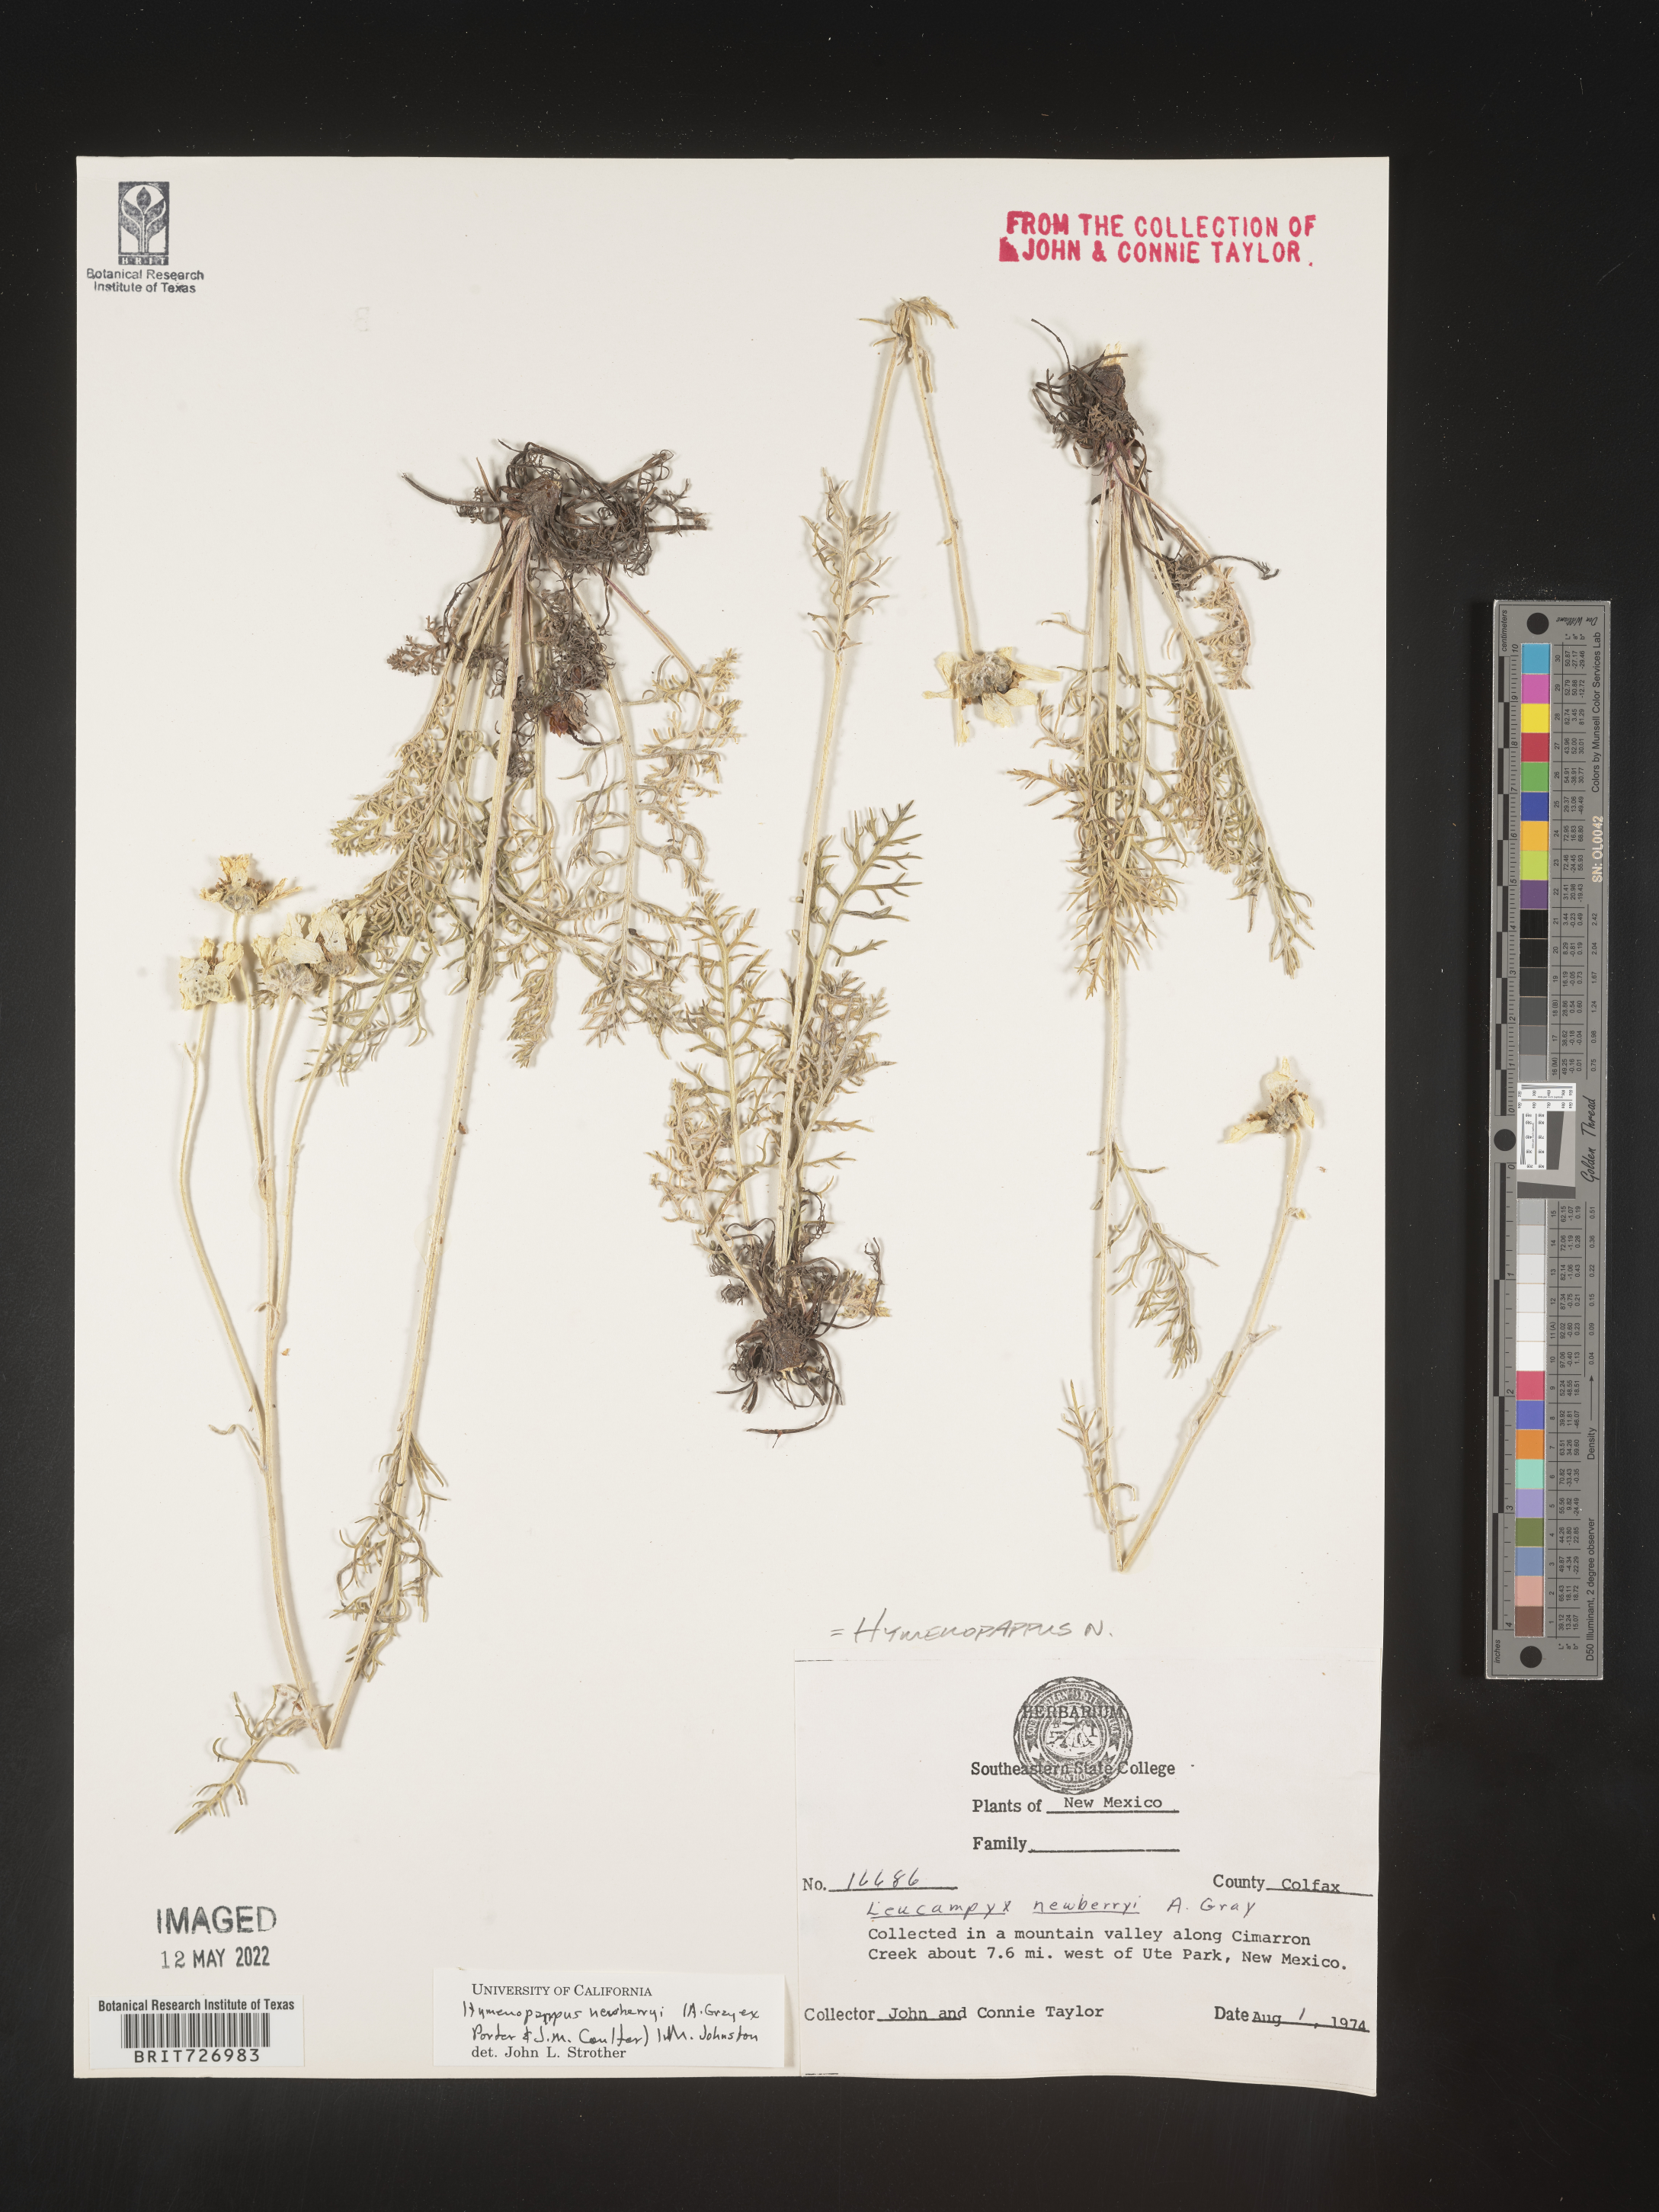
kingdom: Plantae
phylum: Tracheophyta
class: Magnoliopsida
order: Asterales
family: Asteraceae
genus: Hymenopappus
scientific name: Hymenopappus newberryi
